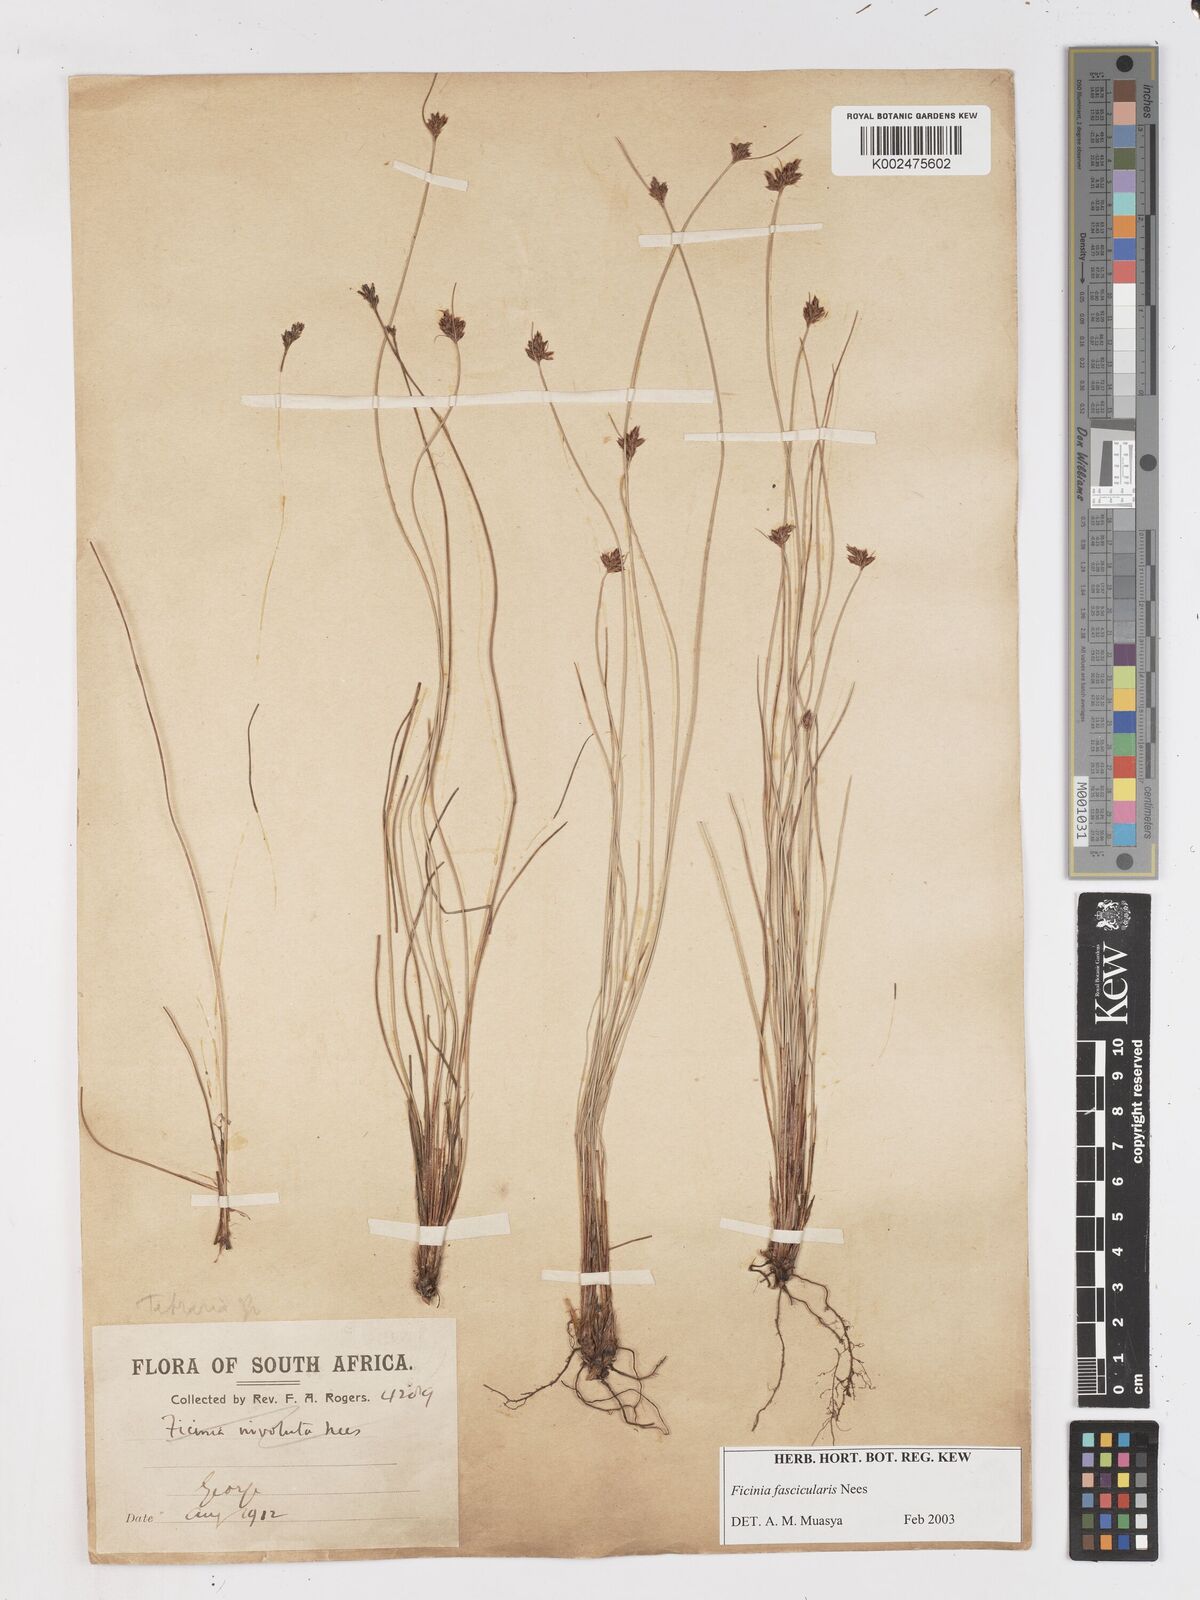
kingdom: Plantae
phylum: Tracheophyta
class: Liliopsida
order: Poales
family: Cyperaceae
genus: Ficinia
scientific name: Ficinia fascicularis
